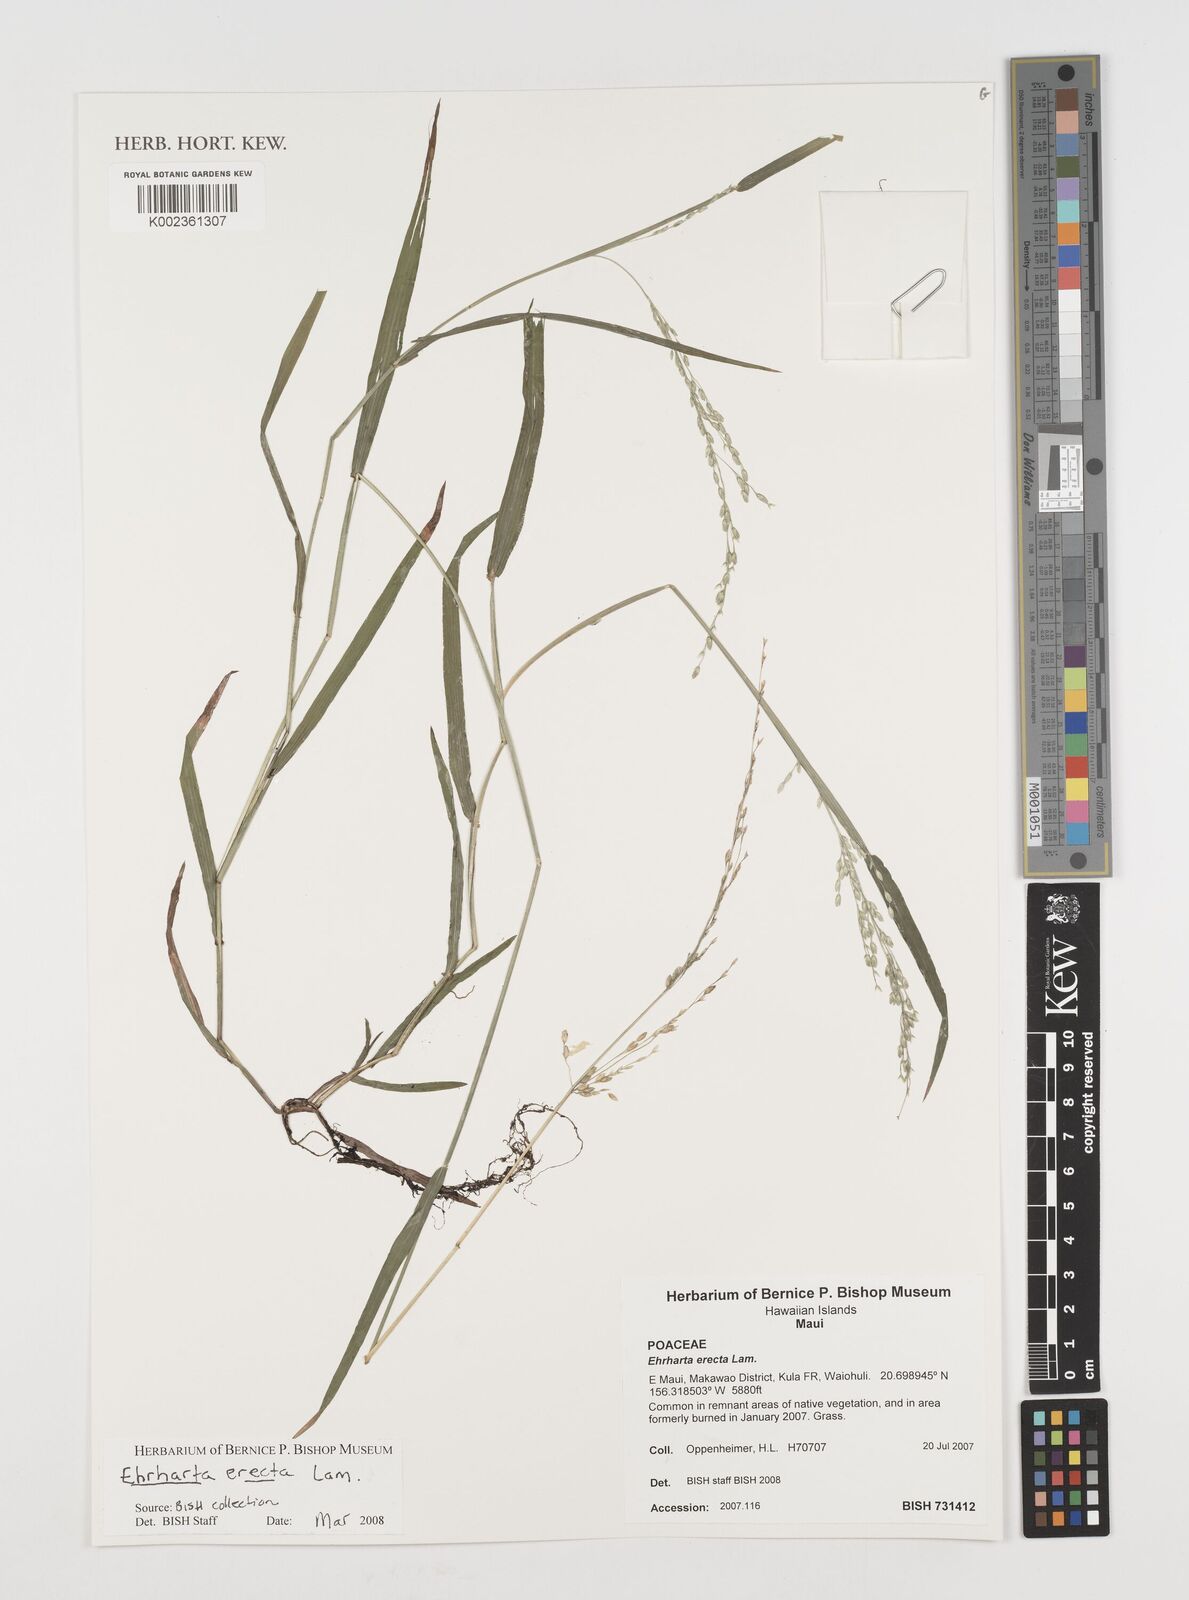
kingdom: Plantae
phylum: Tracheophyta
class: Liliopsida
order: Poales
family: Poaceae
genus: Ehrharta
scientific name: Ehrharta erecta
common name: Panic veldtgrass
